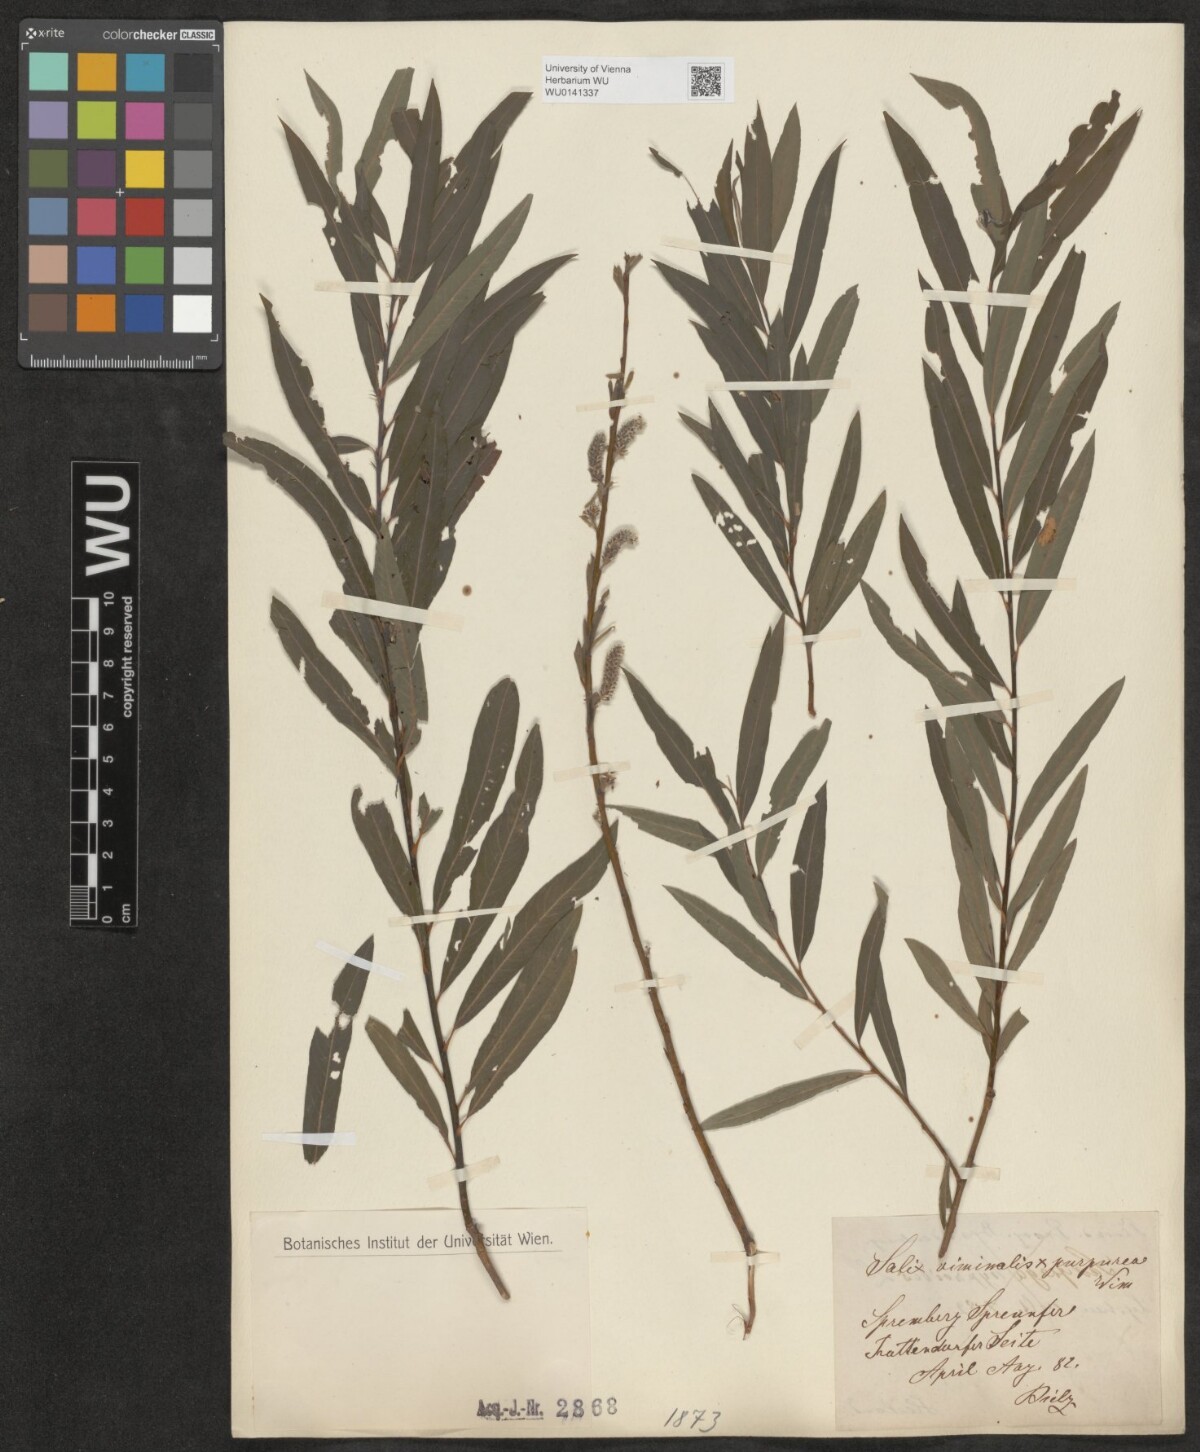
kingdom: Plantae
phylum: Tracheophyta
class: Magnoliopsida
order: Malpighiales
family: Salicaceae
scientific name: Salicaceae
